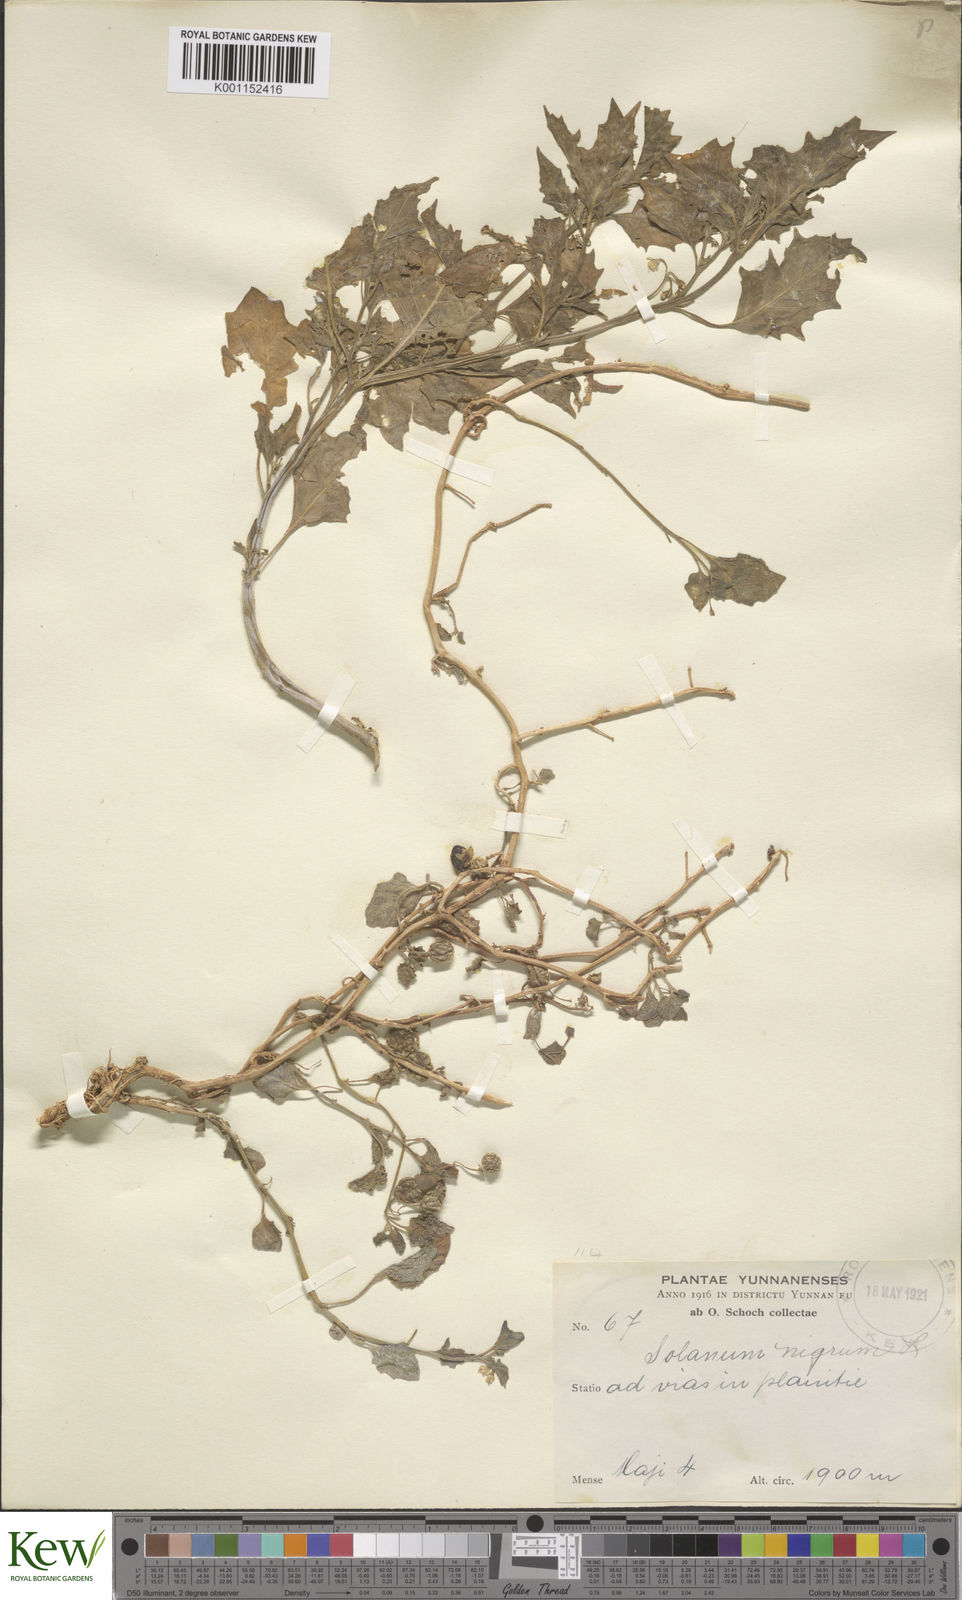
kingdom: Plantae
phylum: Tracheophyta
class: Magnoliopsida
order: Solanales
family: Solanaceae
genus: Solanum
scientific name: Solanum scabrum
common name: Garden-huckleberry
